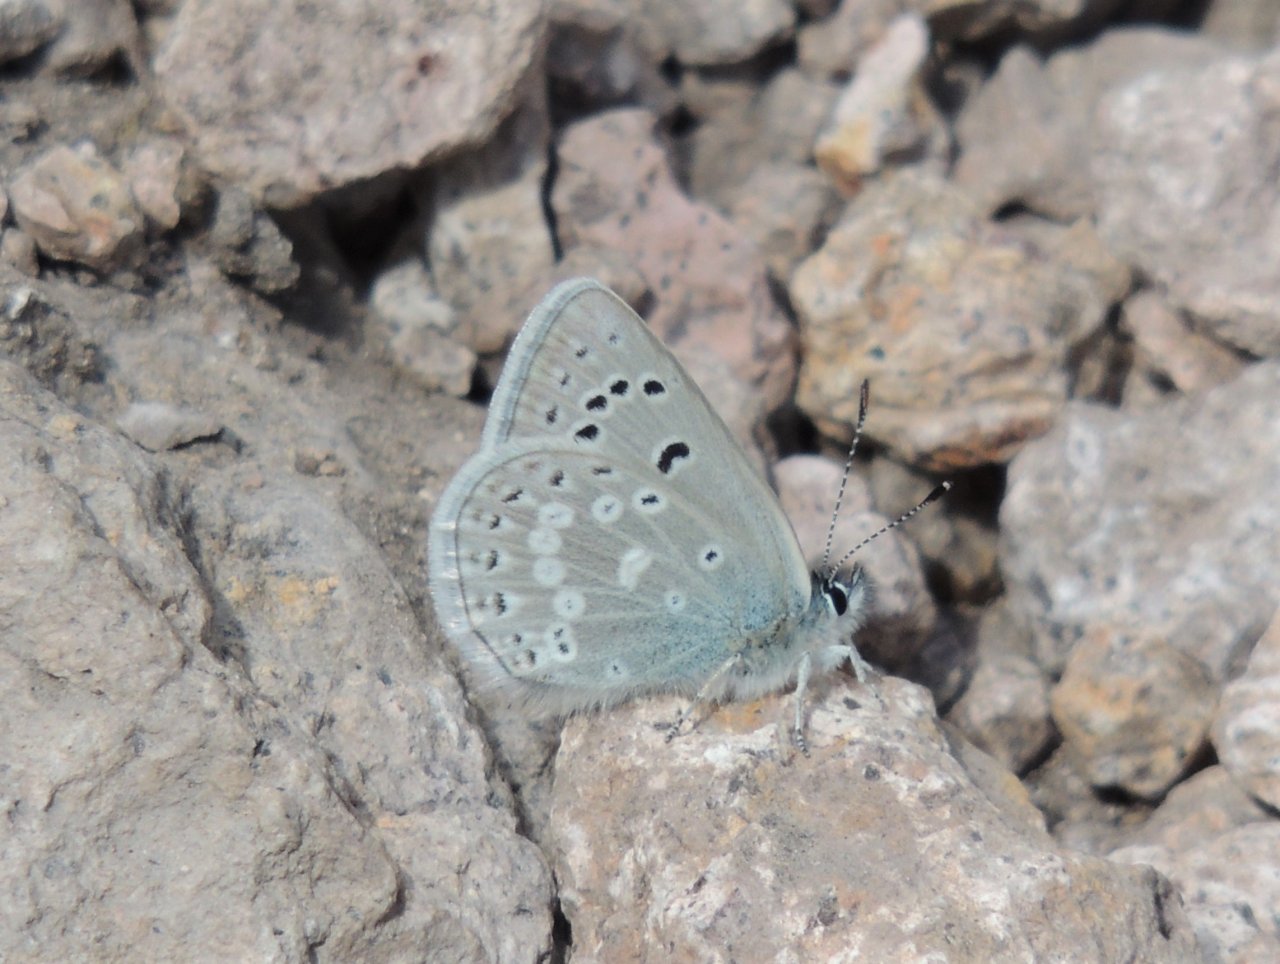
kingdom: Animalia
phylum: Arthropoda
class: Insecta
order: Lepidoptera
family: Lycaenidae
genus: Icaricia
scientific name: Icaricia icarioides
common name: Boisduval's Blue
